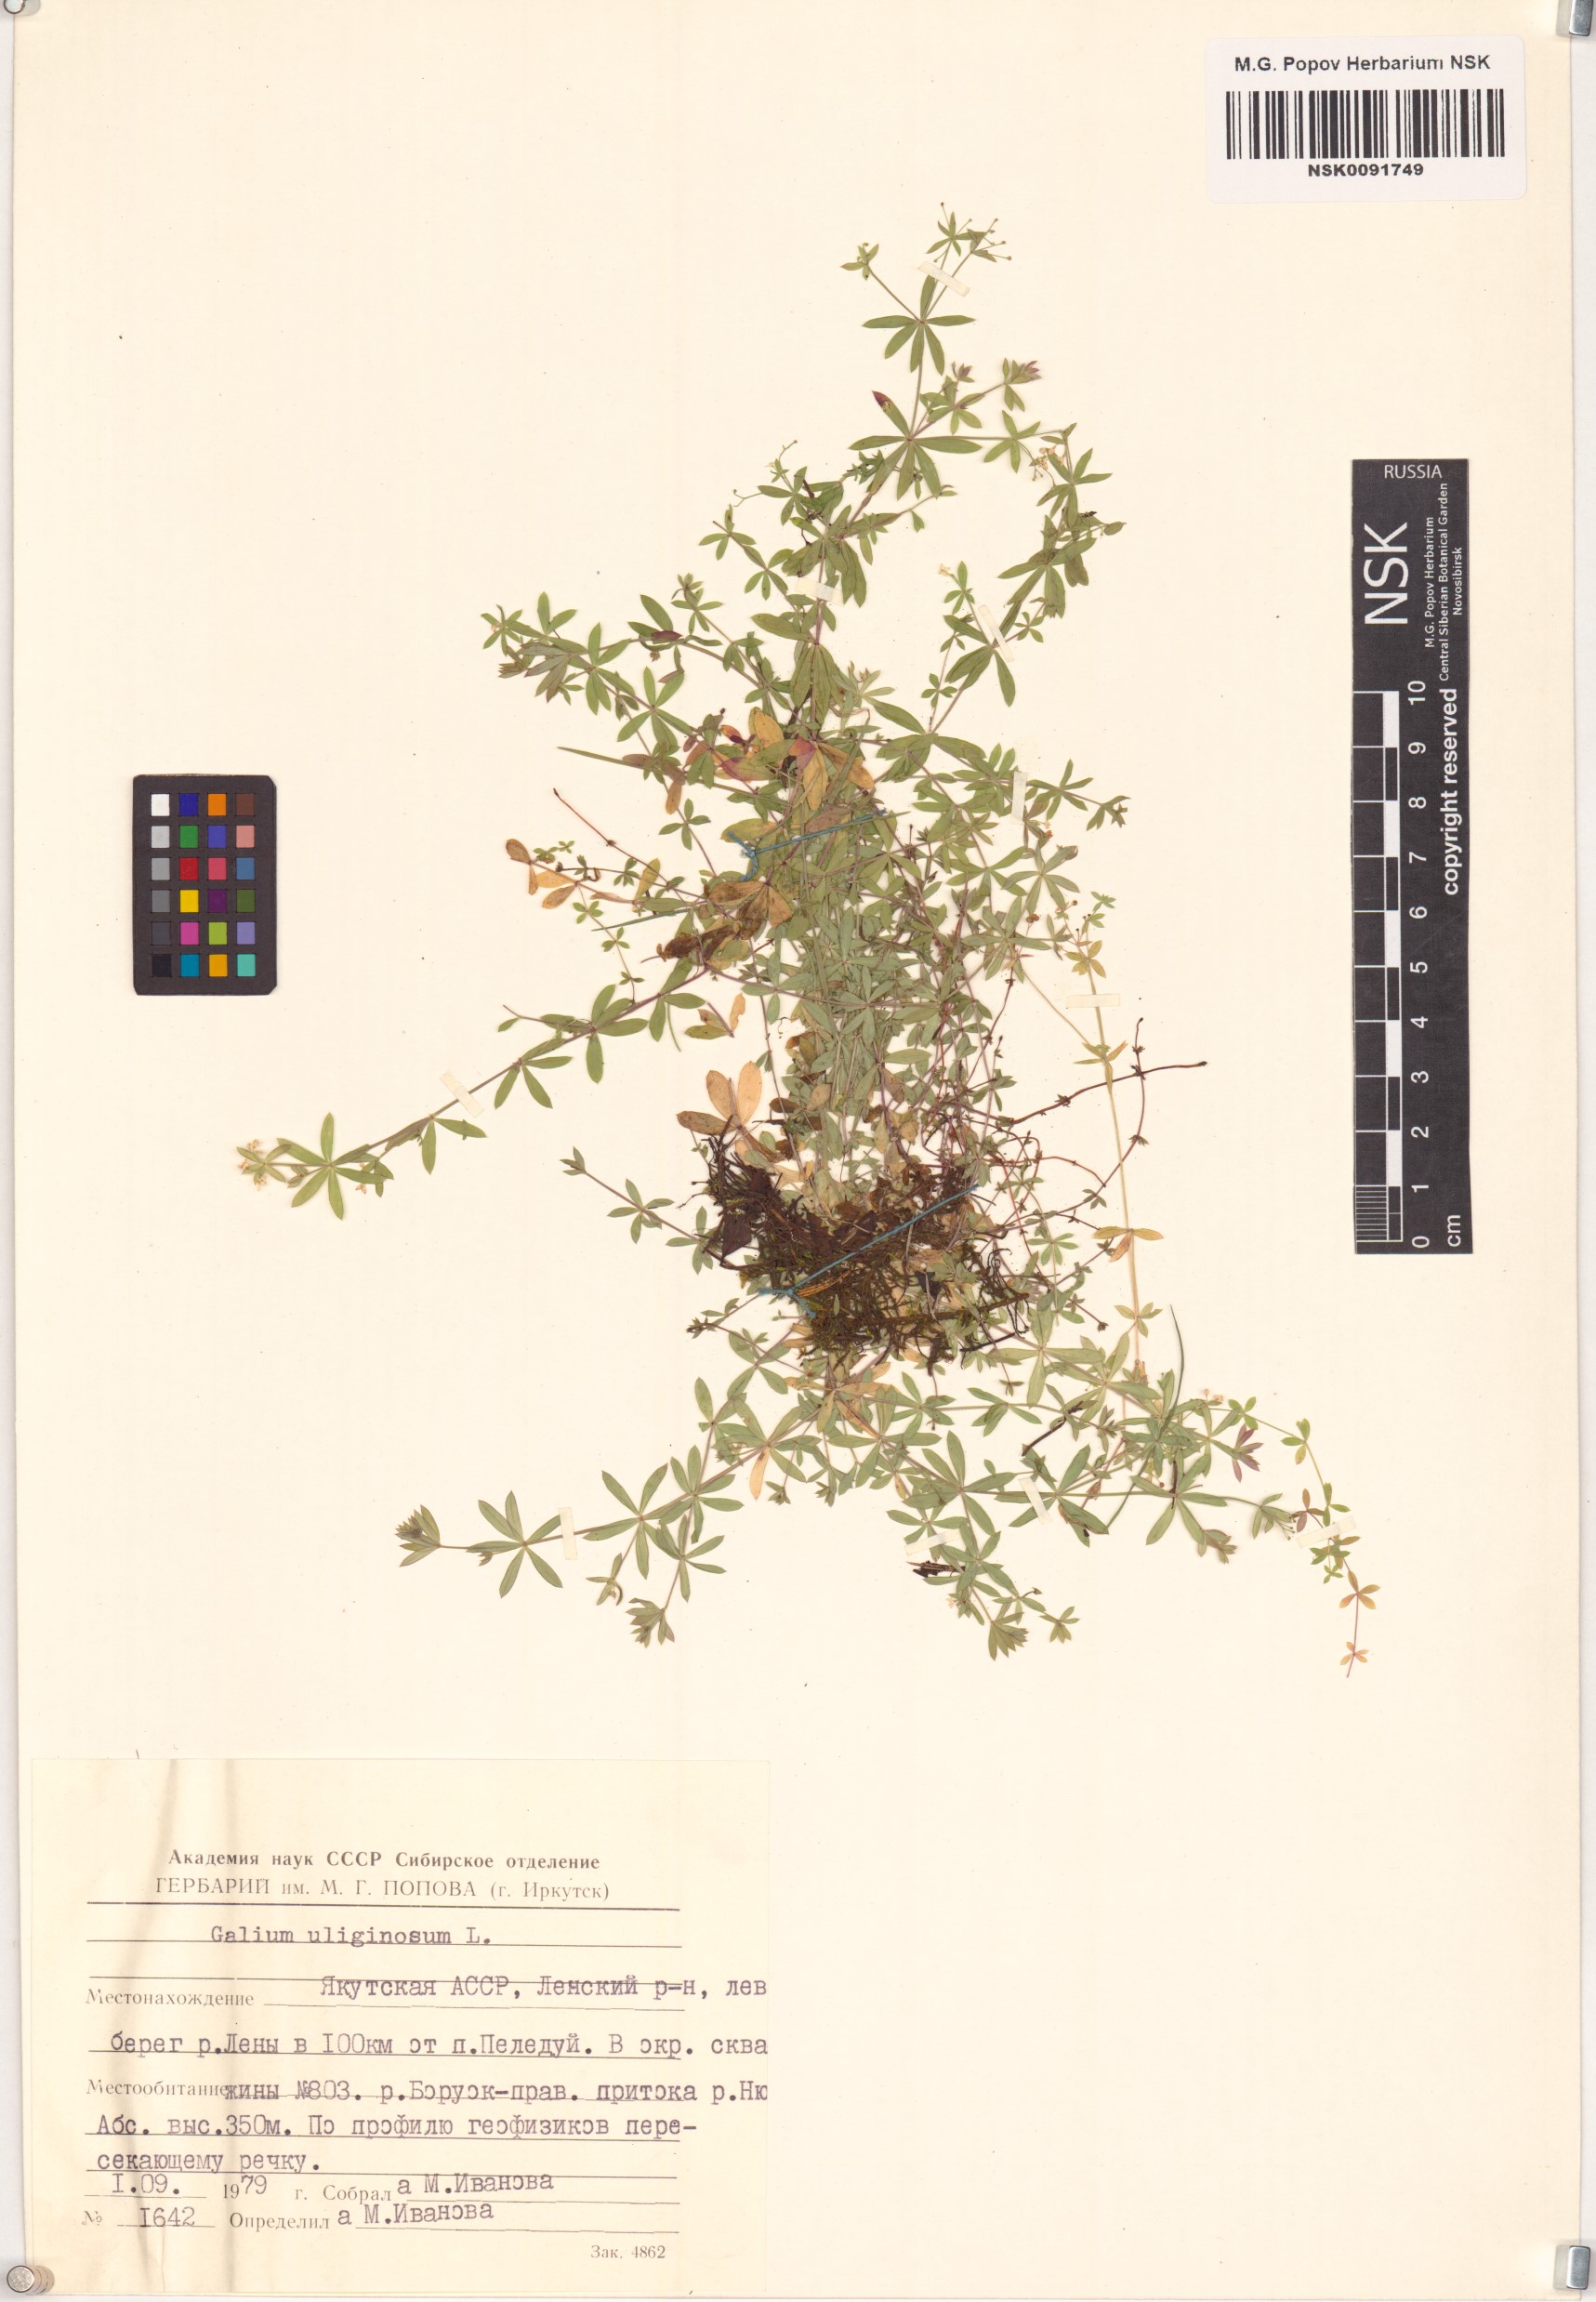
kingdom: Plantae
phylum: Tracheophyta
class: Magnoliopsida
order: Gentianales
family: Rubiaceae
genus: Galium
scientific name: Galium uliginosum
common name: Fen bedstraw
